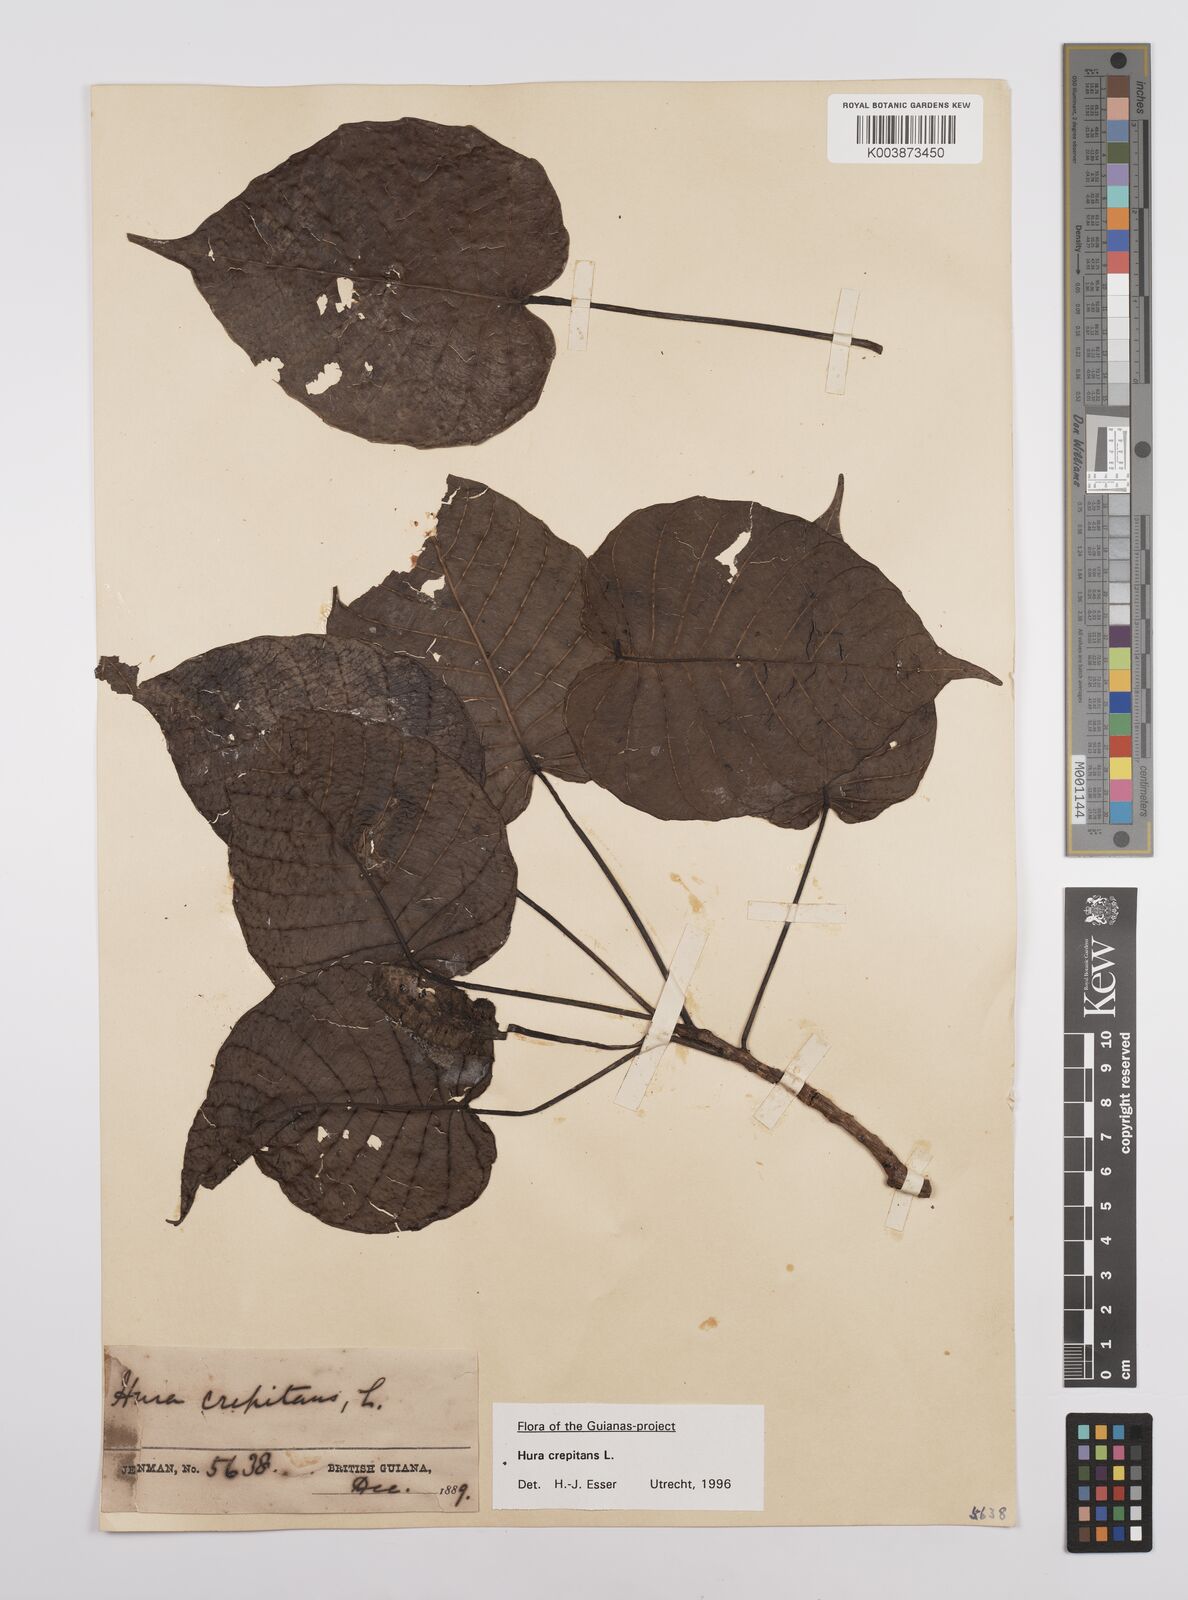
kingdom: Plantae
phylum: Tracheophyta
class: Magnoliopsida
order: Malpighiales
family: Euphorbiaceae
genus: Hura
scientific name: Hura crepitans
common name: Sandboxtree
